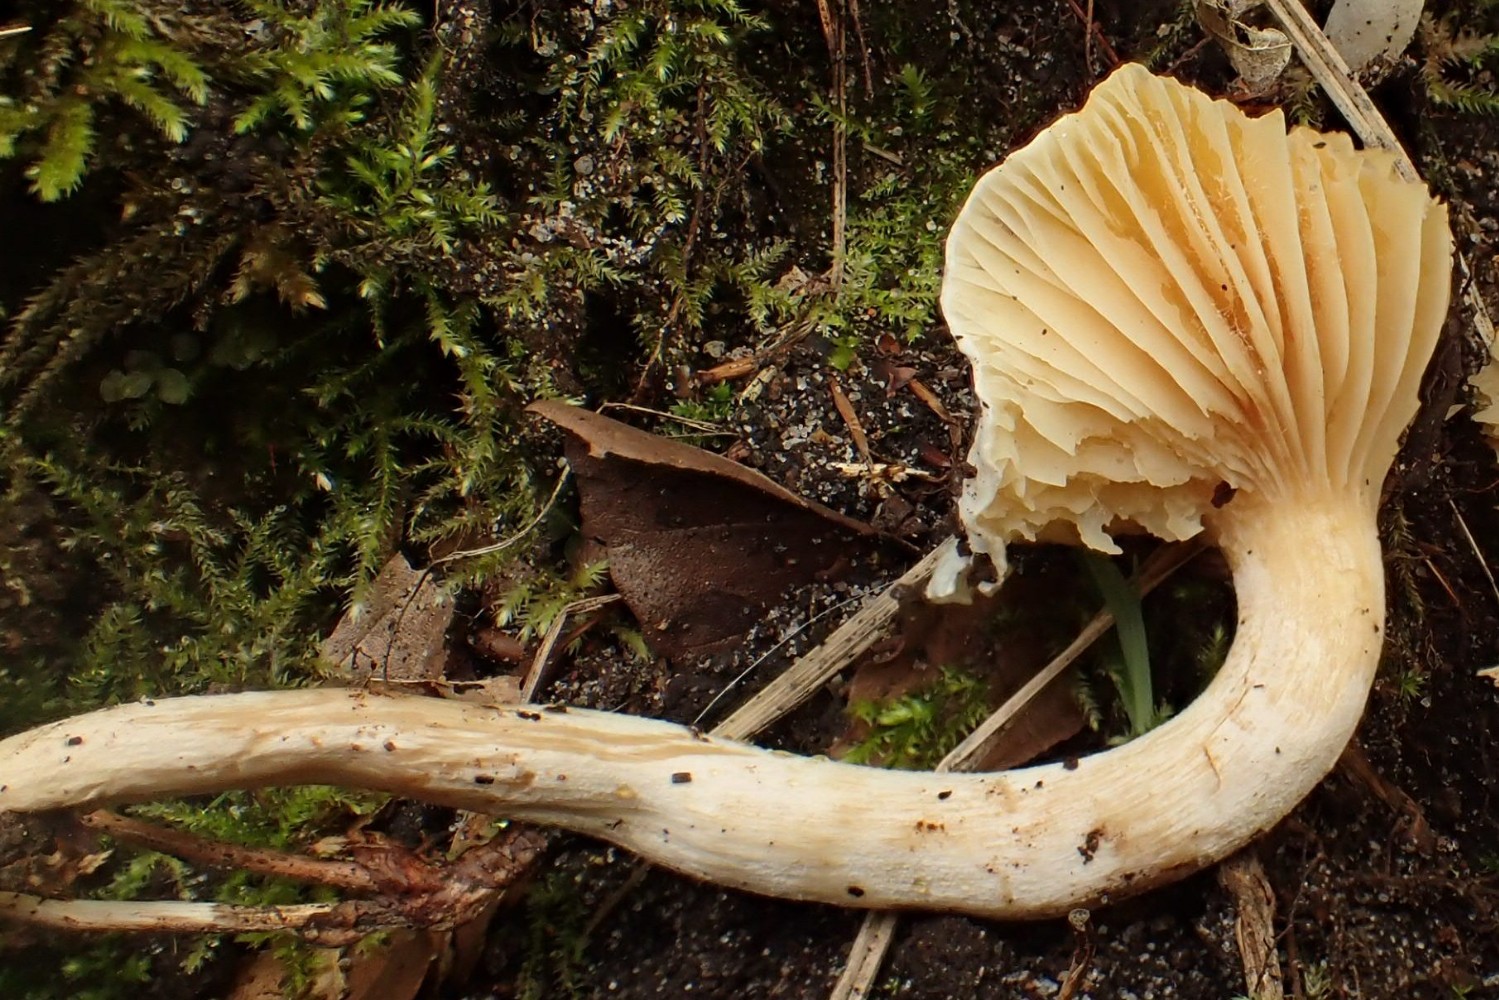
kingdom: Fungi
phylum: Basidiomycota
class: Agaricomycetes
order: Agaricales
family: Hygrophoraceae
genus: Hygrophorus
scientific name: Hygrophorus discoxanthus
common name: ildelugtende sneglehat
